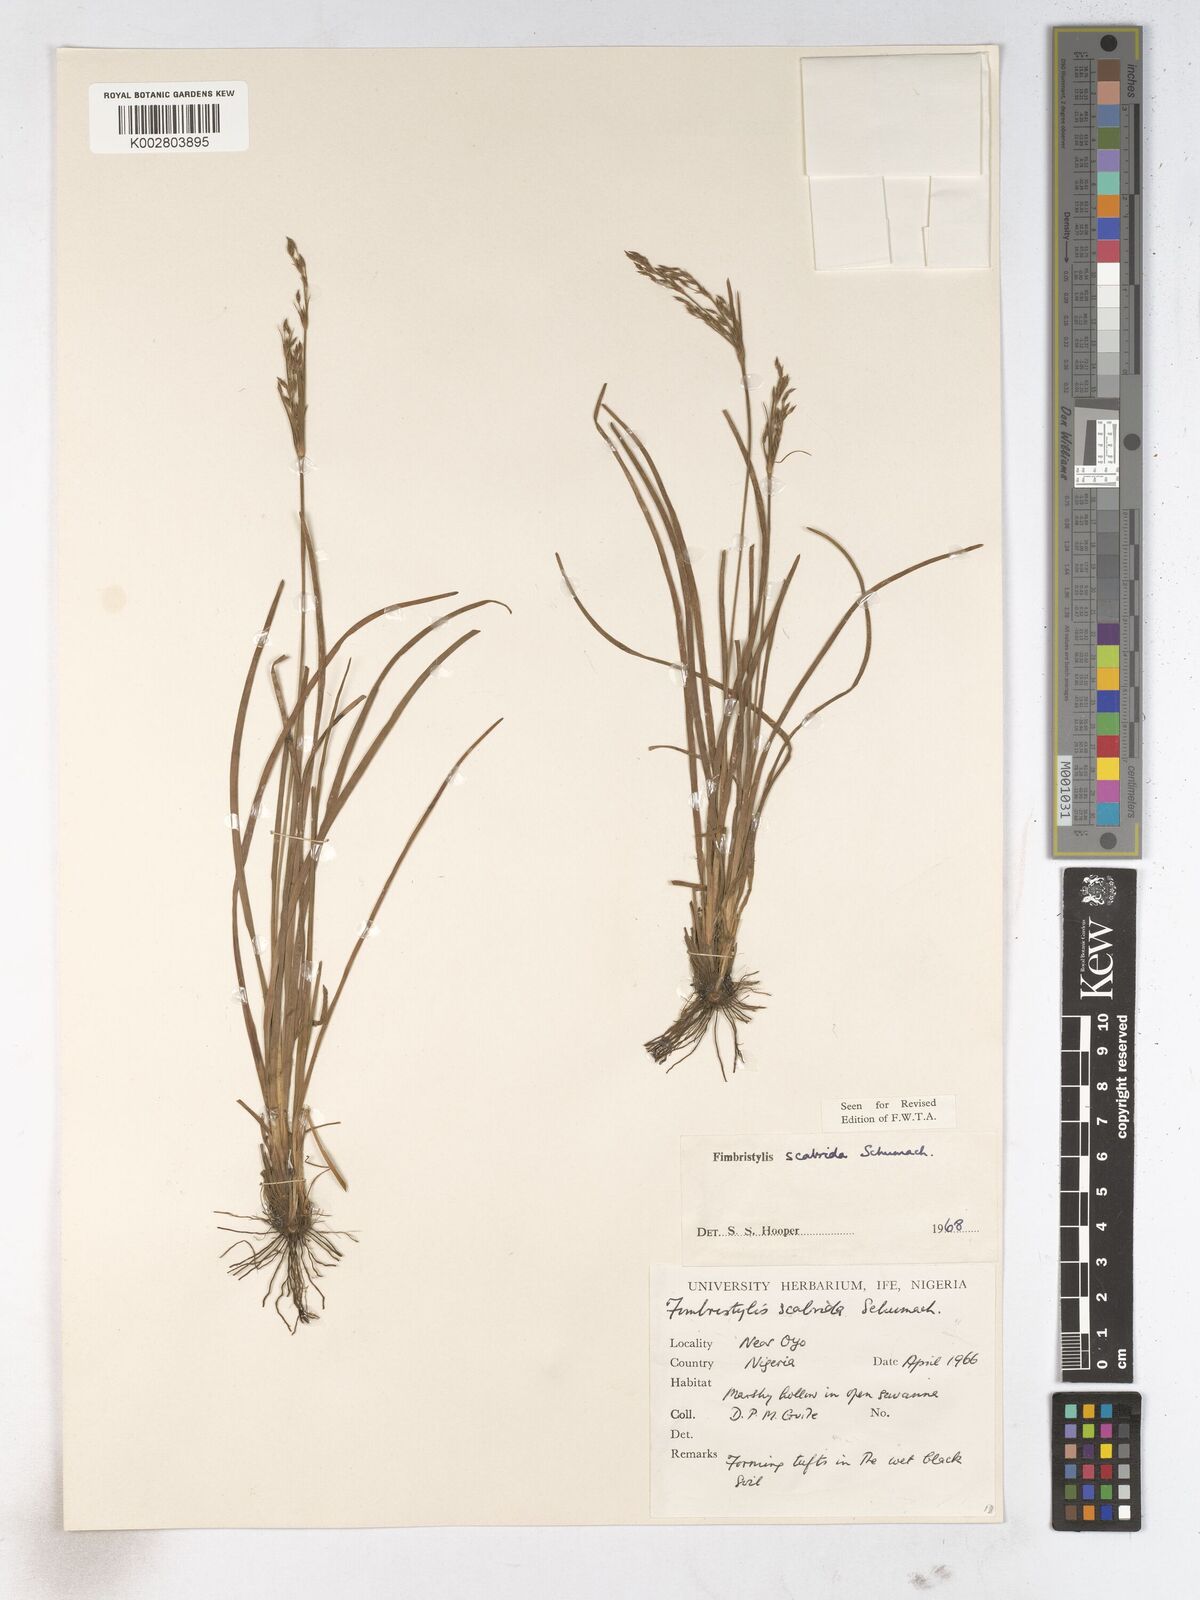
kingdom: Plantae
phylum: Tracheophyta
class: Liliopsida
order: Poales
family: Cyperaceae
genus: Fimbristylis
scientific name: Fimbristylis scabrida
